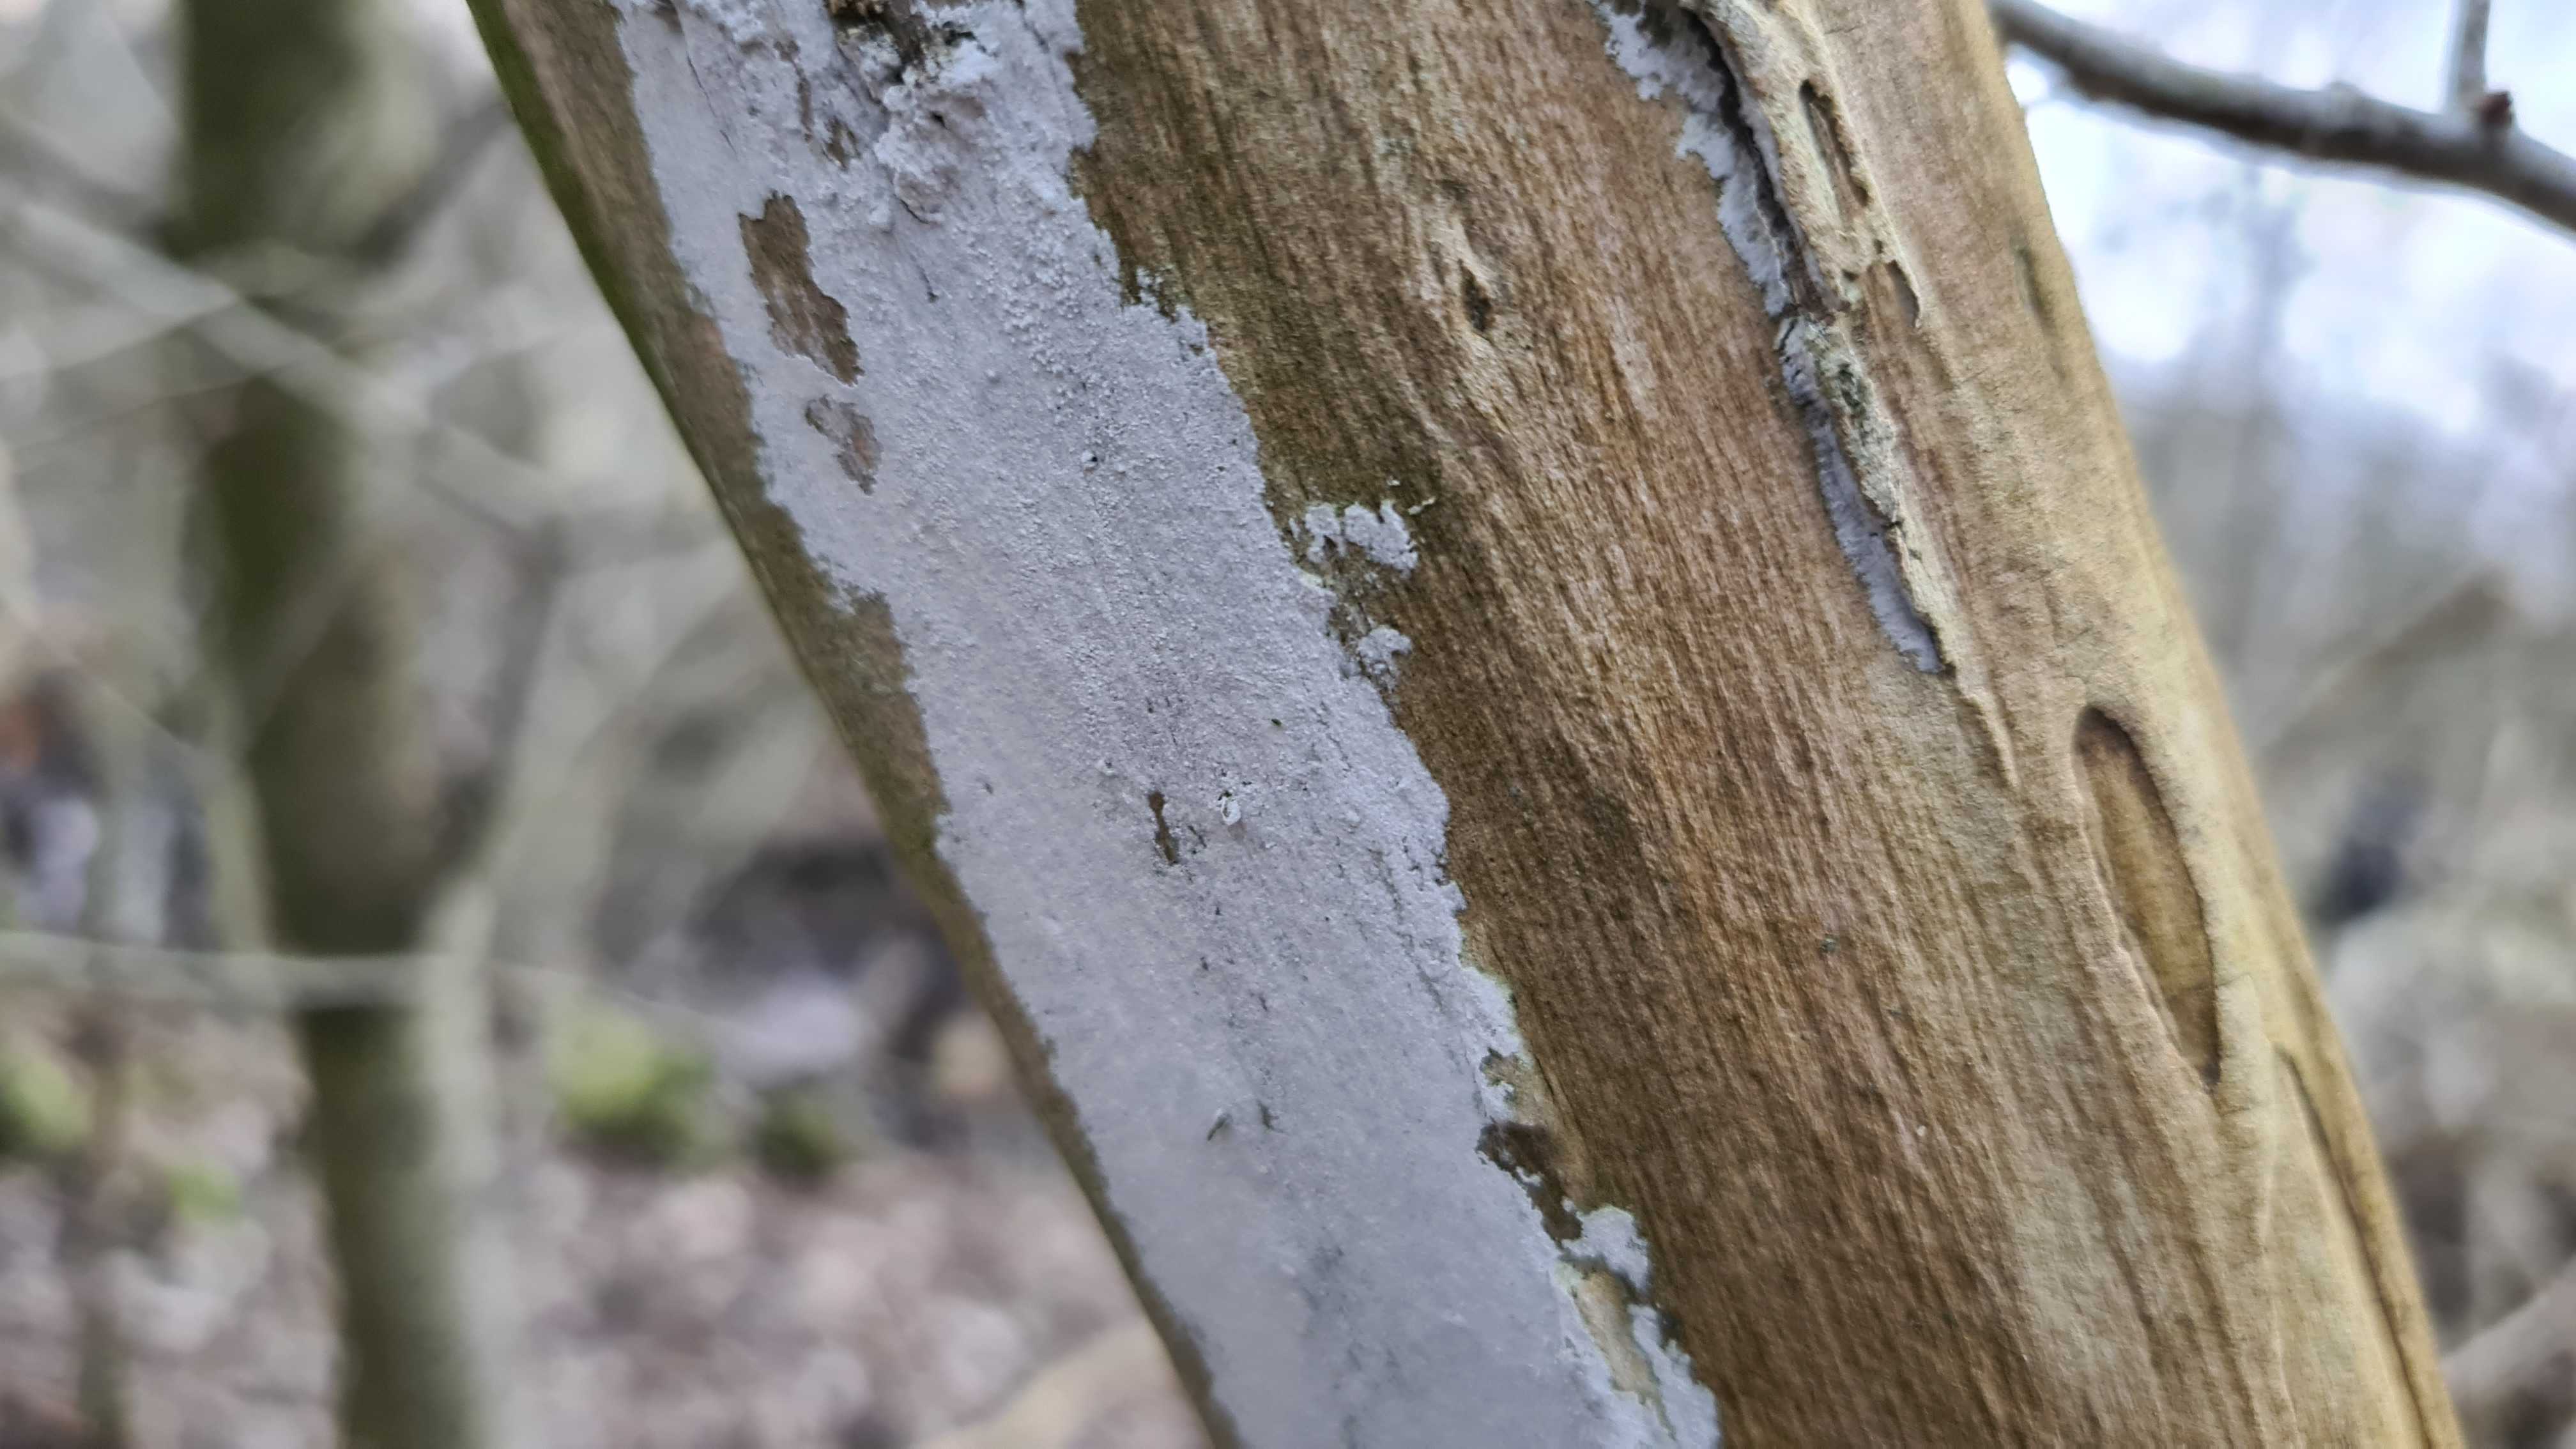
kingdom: Fungi
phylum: Basidiomycota
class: Agaricomycetes
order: Corticiales
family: Corticiaceae
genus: Lyomyces
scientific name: Lyomyces sambuci
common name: almindelig hyldehinde
